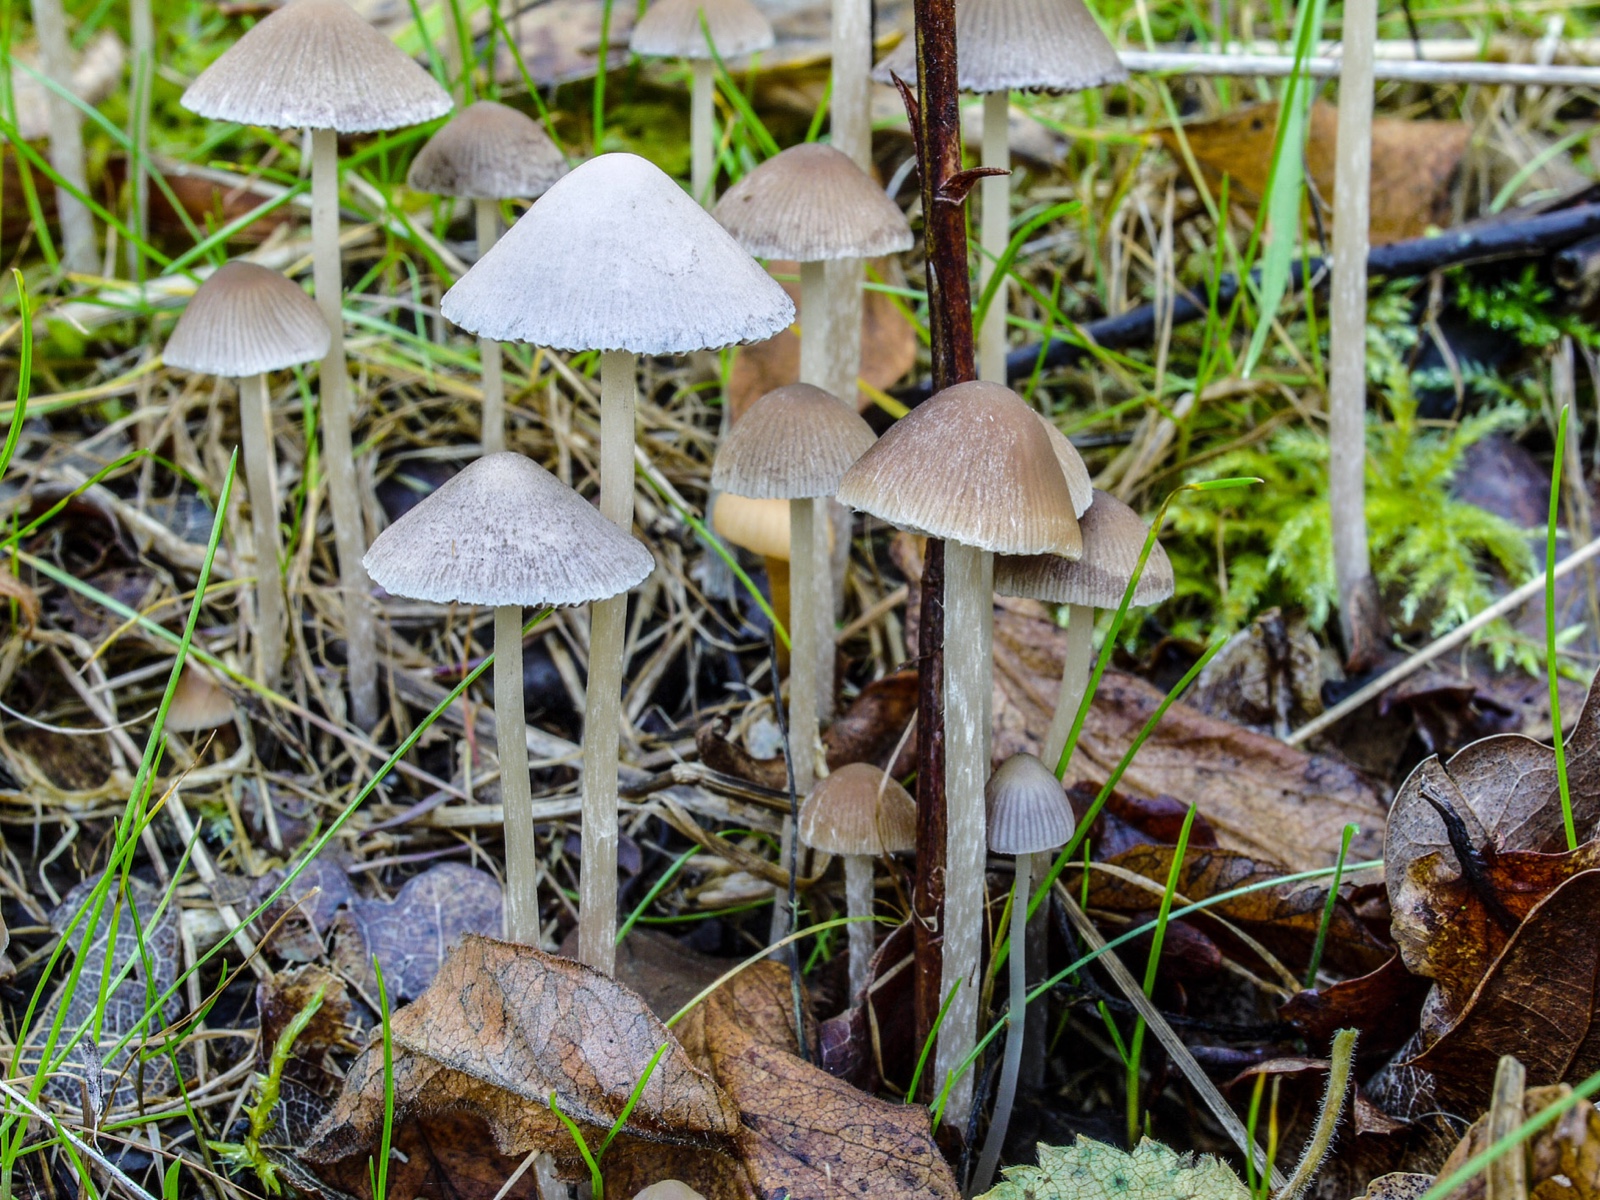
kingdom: Fungi
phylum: Basidiomycota
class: Agaricomycetes
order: Agaricales
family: Psathyrellaceae
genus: Psathyrella
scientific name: Psathyrella pseudogracilis
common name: slank mørkhat
